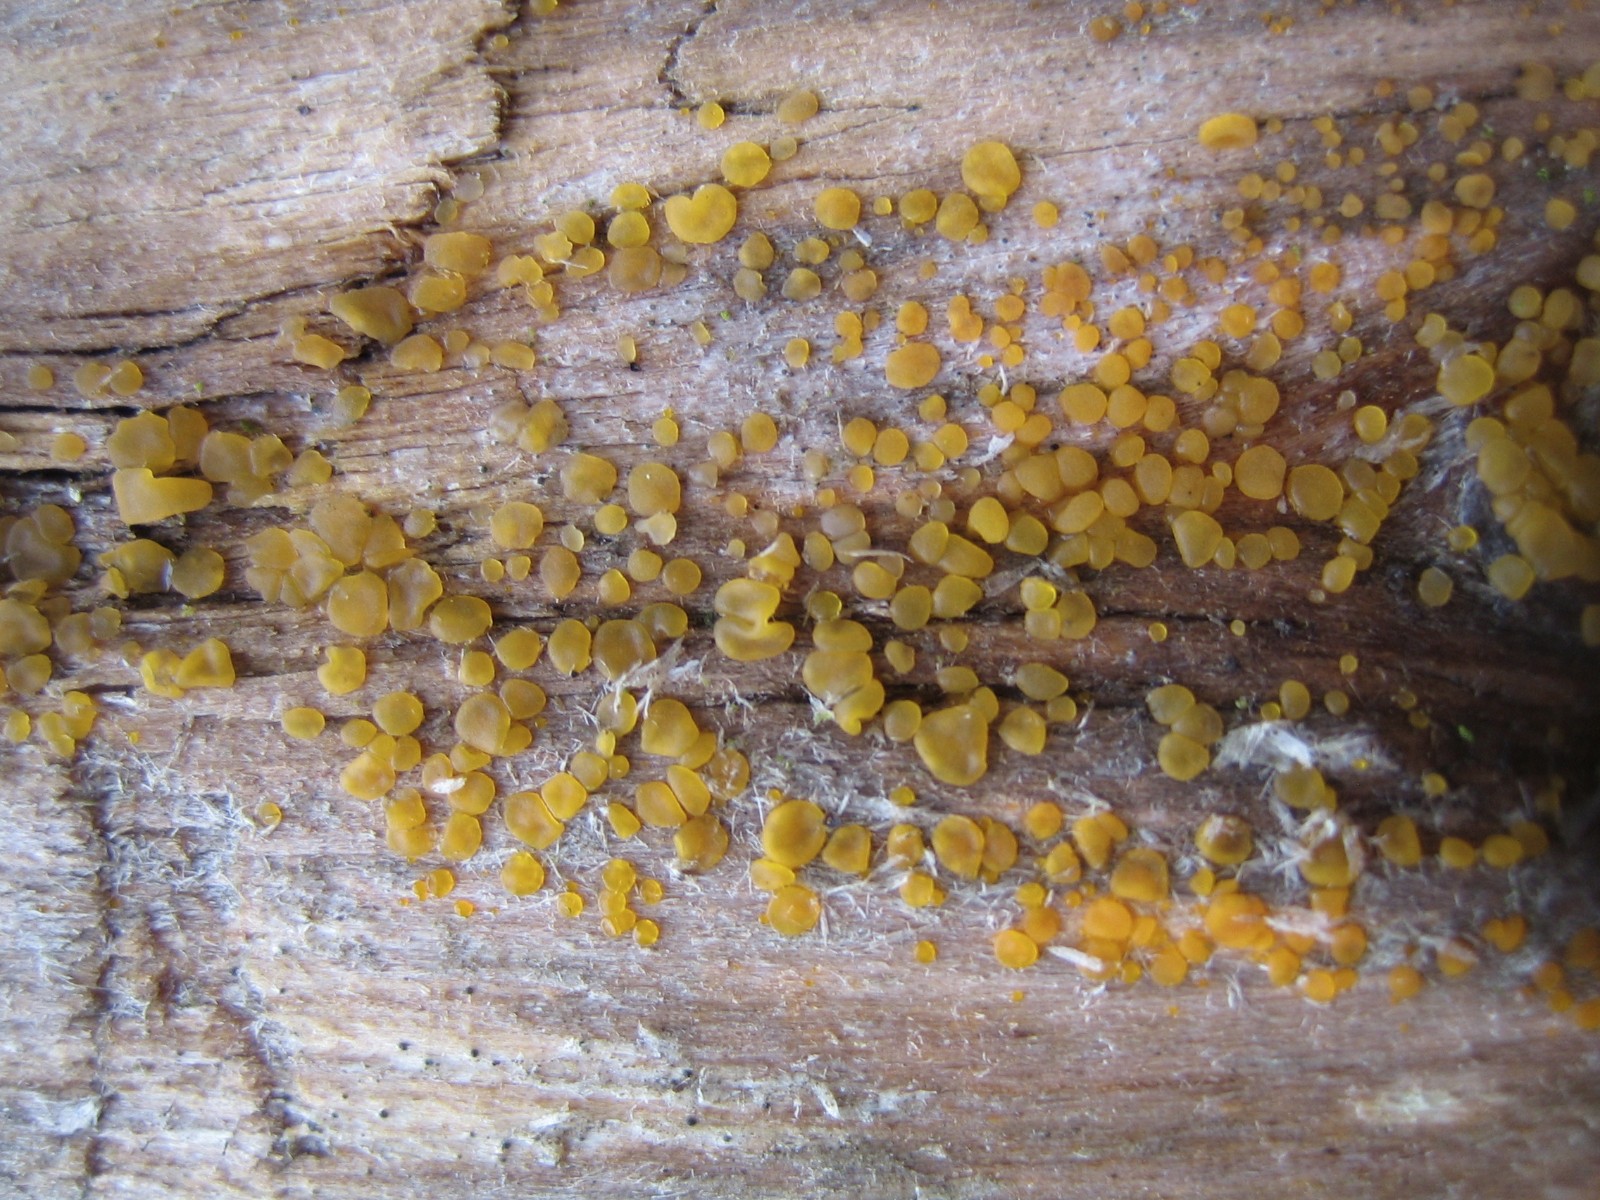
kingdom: Fungi
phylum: Basidiomycota
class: Dacrymycetes
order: Dacrymycetales
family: Dacrymycetaceae
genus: Dacrymyces
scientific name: Dacrymyces
